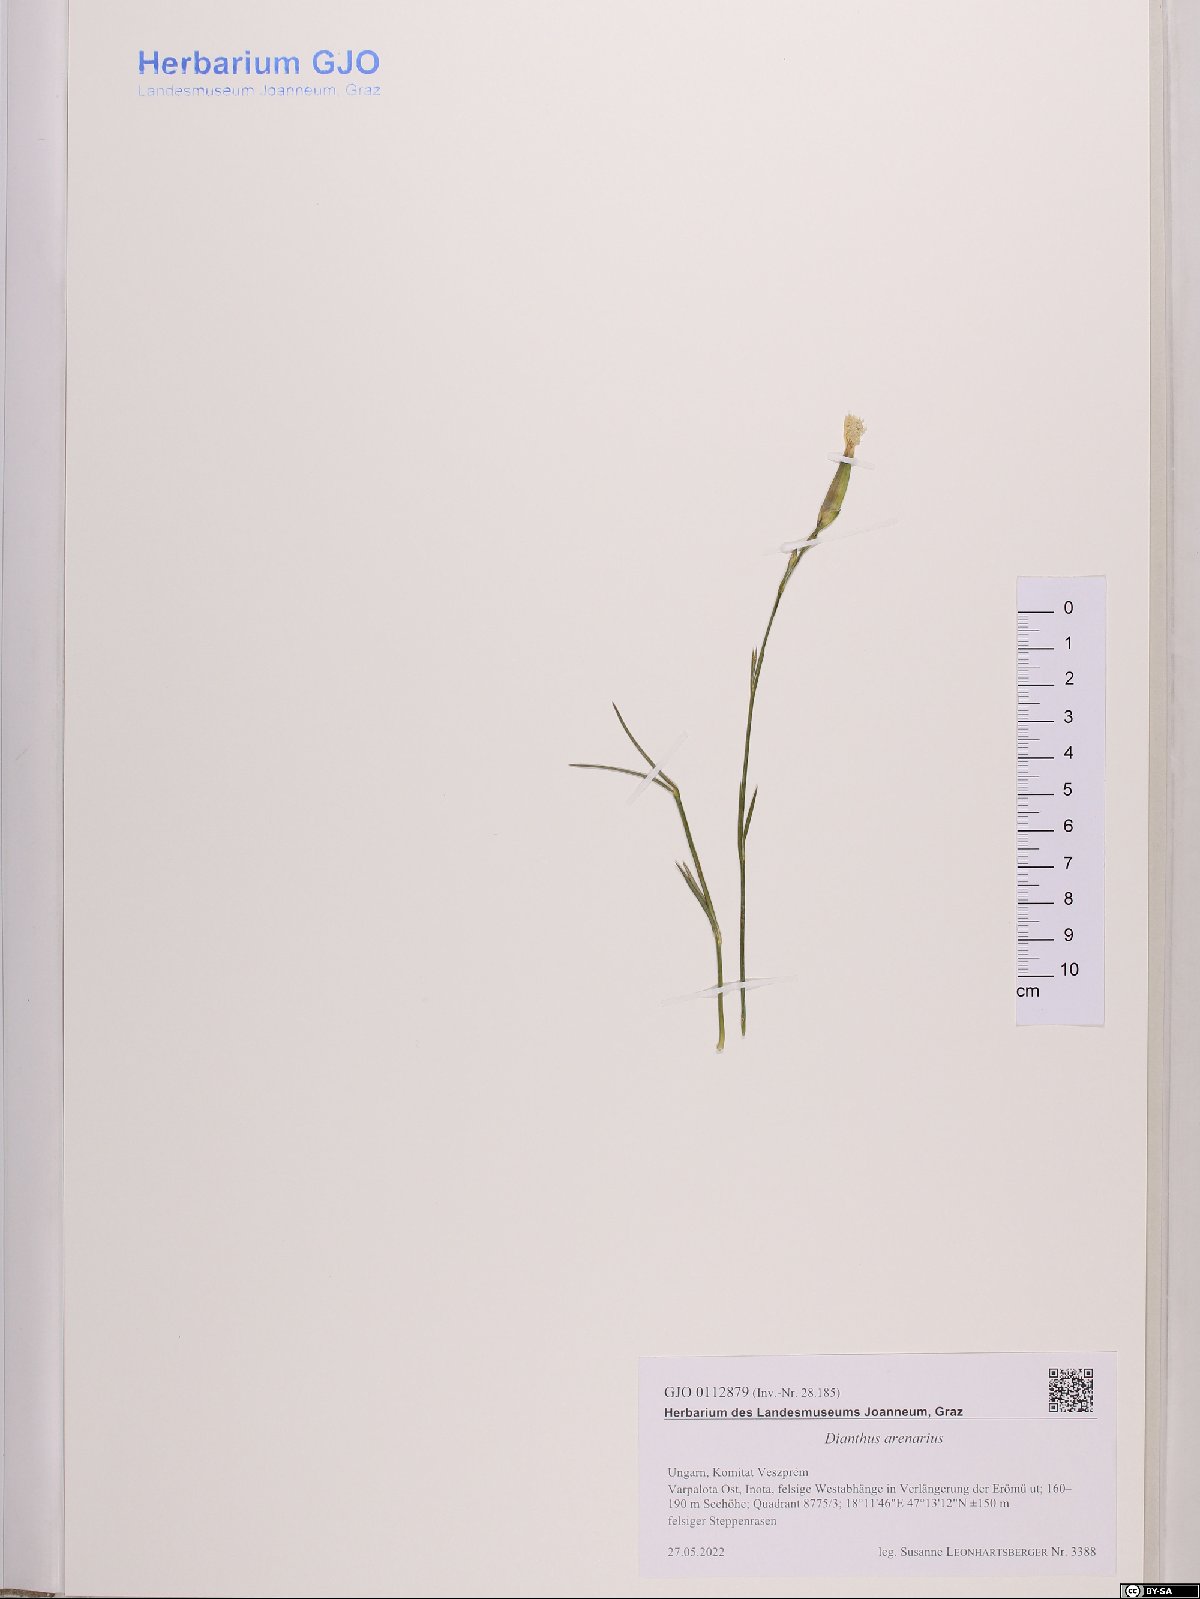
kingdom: Plantae
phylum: Tracheophyta
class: Magnoliopsida
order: Caryophyllales
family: Caryophyllaceae
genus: Dianthus
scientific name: Dianthus arenarius
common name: Stone pink
